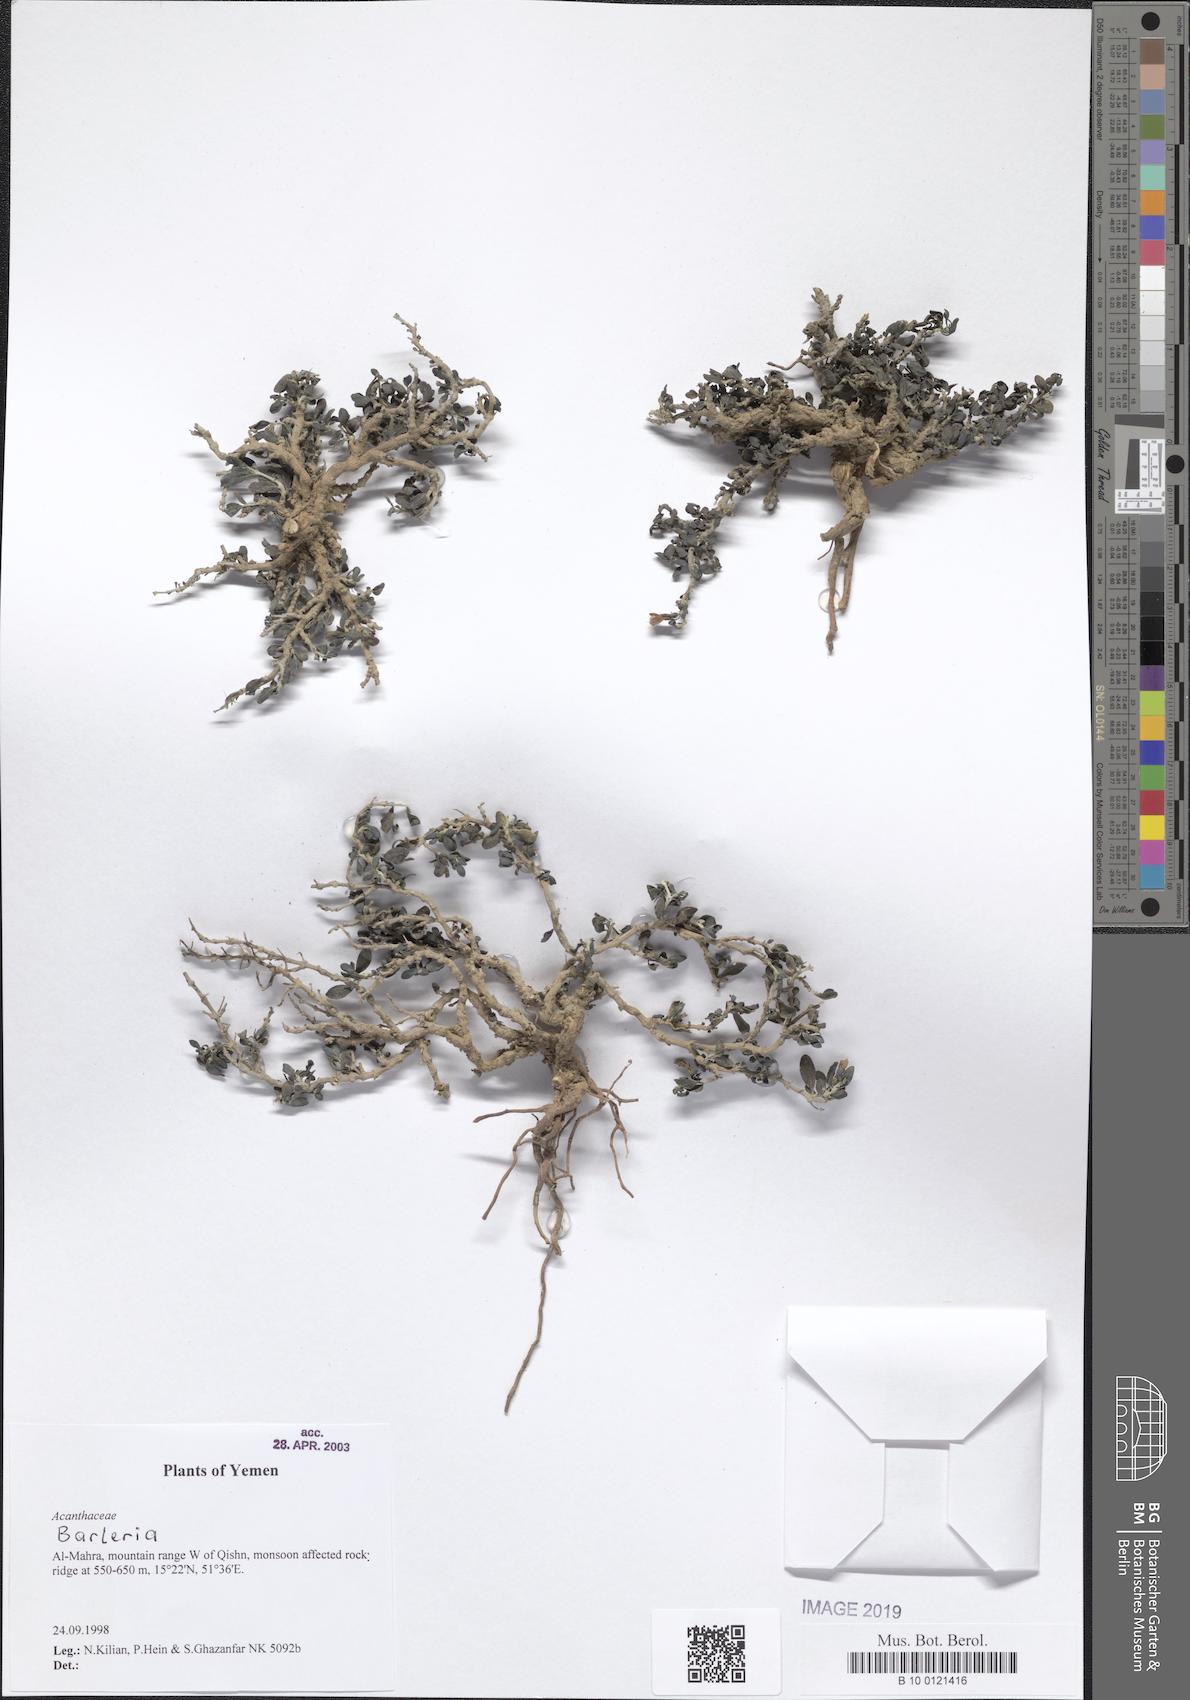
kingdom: Plantae
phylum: Tracheophyta
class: Magnoliopsida
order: Lamiales
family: Acanthaceae
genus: Barleria
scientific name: Barleria
